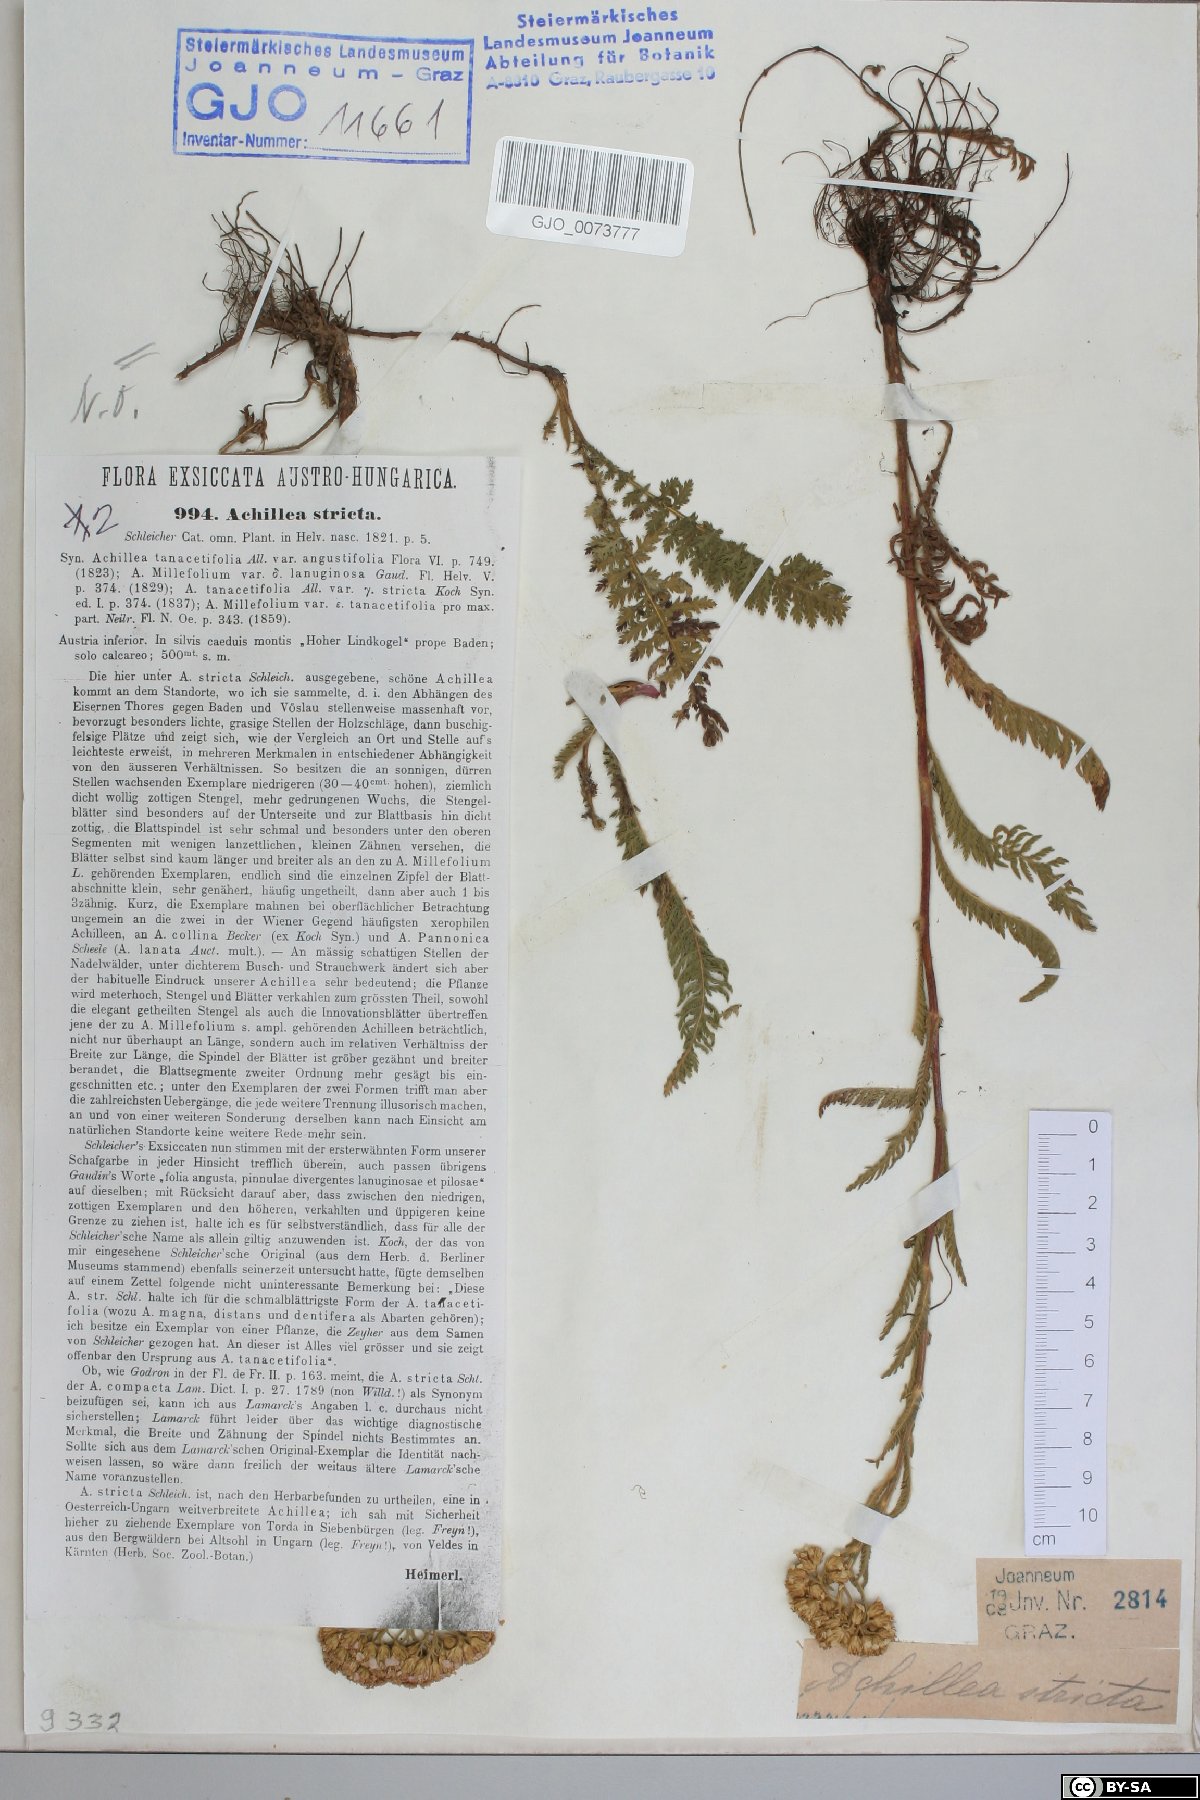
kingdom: Plantae
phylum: Tracheophyta
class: Magnoliopsida
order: Asterales
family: Asteraceae
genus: Achillea
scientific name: Achillea distans
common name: Tall yarrow
